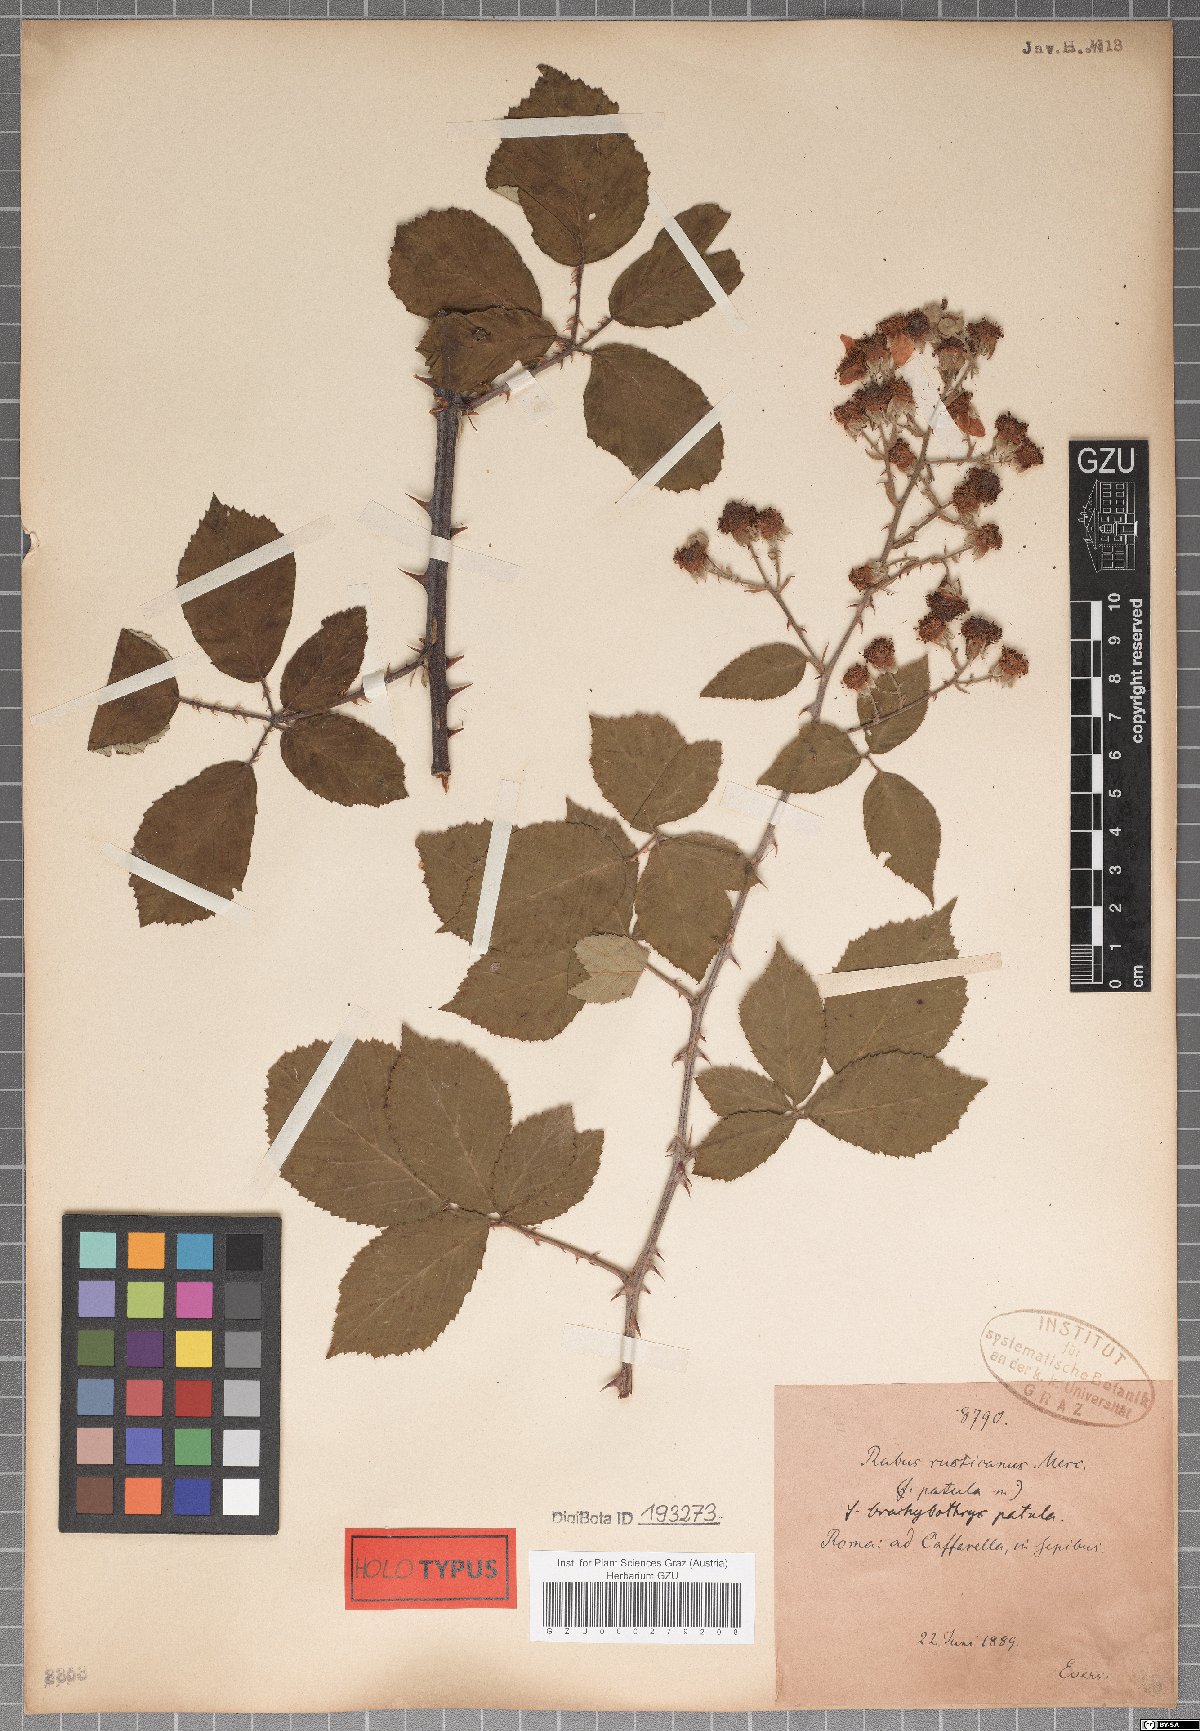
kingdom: Plantae
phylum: Tracheophyta
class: Magnoliopsida
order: Rosales
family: Rosaceae
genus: Rubus
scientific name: Rubus ulmifolius
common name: Elmleaf blackberry
